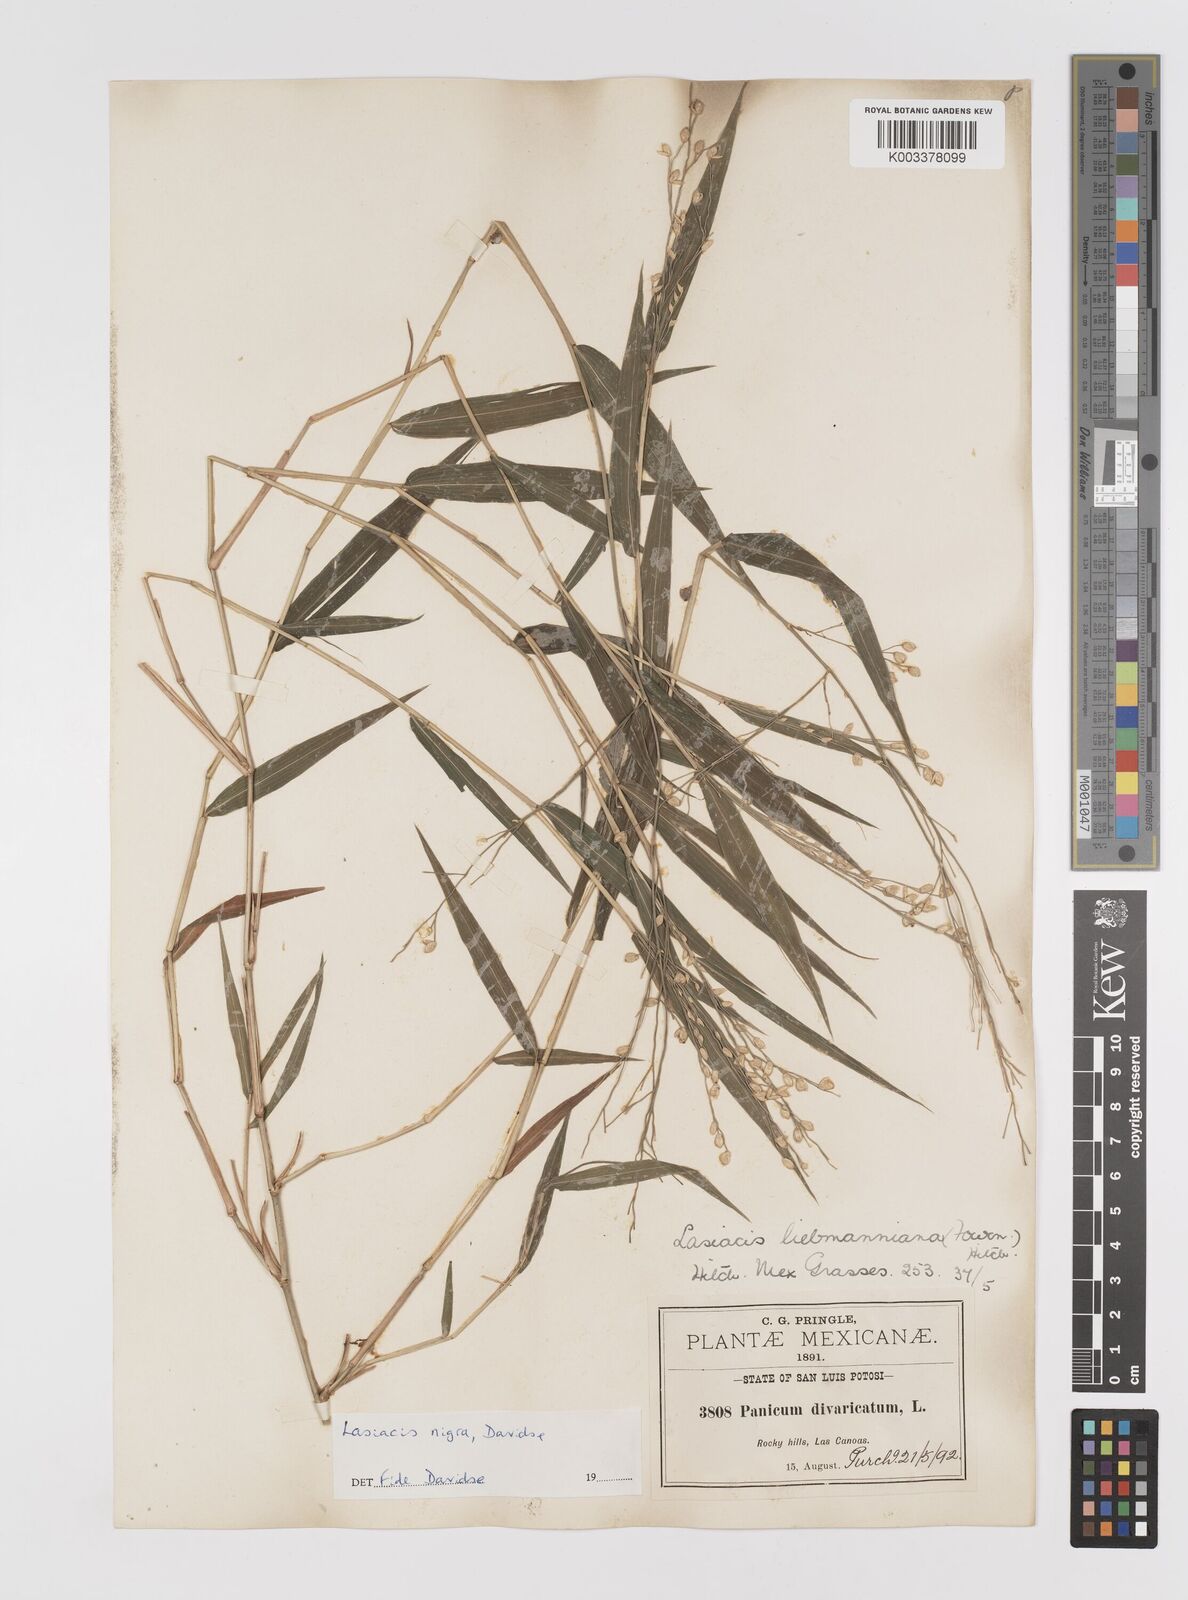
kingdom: Plantae
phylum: Tracheophyta
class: Liliopsida
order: Poales
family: Poaceae
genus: Lasiacis
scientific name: Lasiacis nigra
